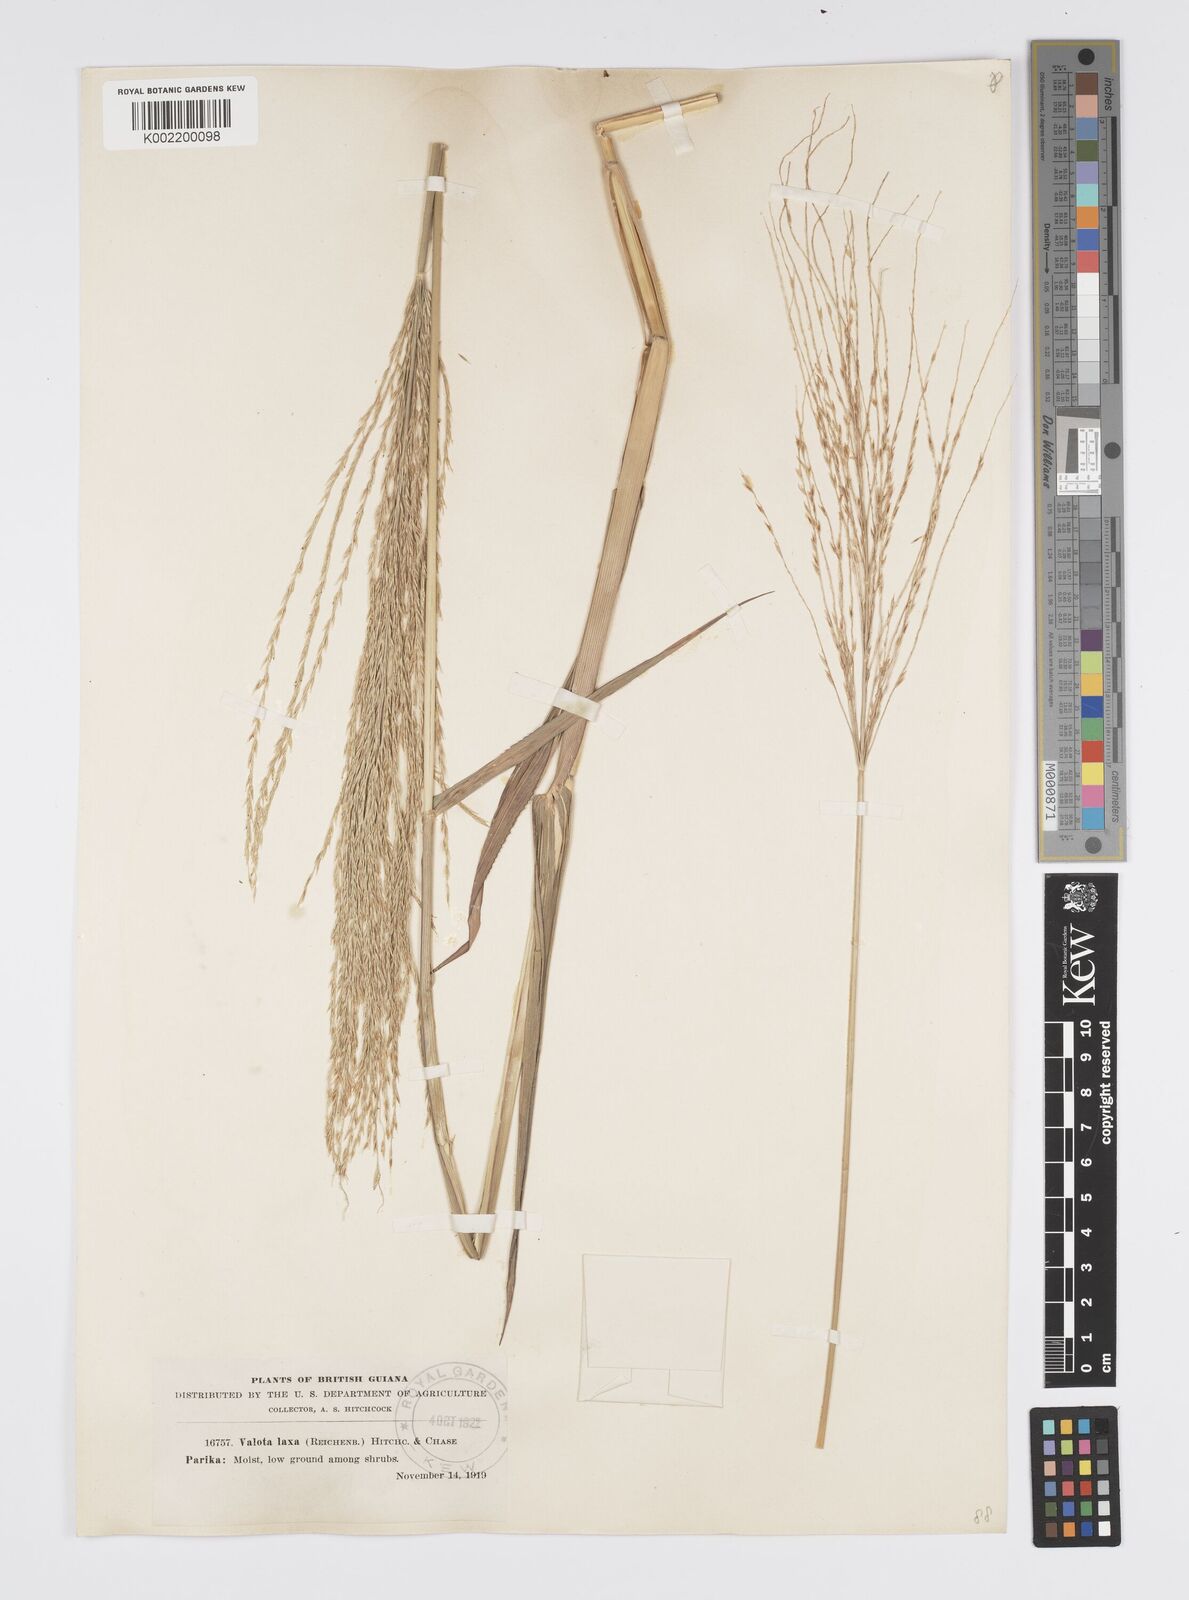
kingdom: Plantae
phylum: Tracheophyta
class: Liliopsida
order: Poales
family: Poaceae
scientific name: Poaceae
